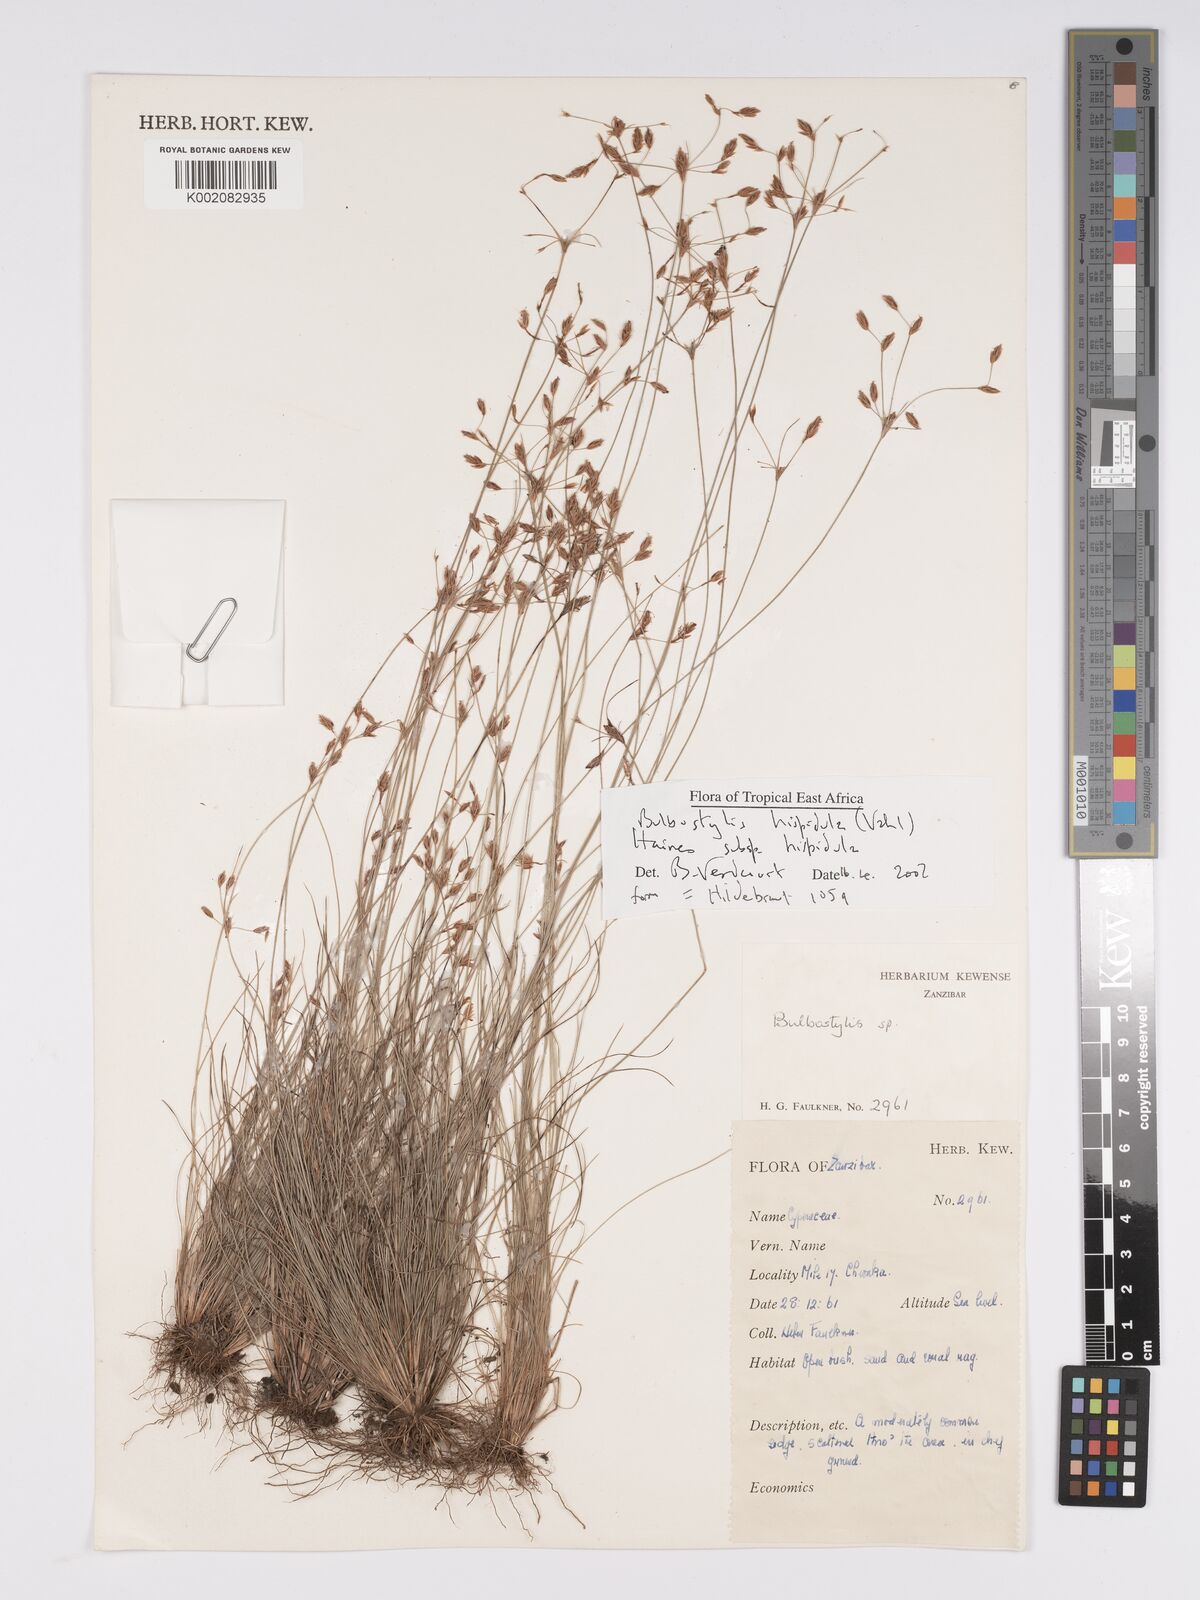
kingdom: Plantae
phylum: Tracheophyta
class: Liliopsida
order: Poales
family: Cyperaceae
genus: Bulbostylis
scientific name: Bulbostylis hispidula
